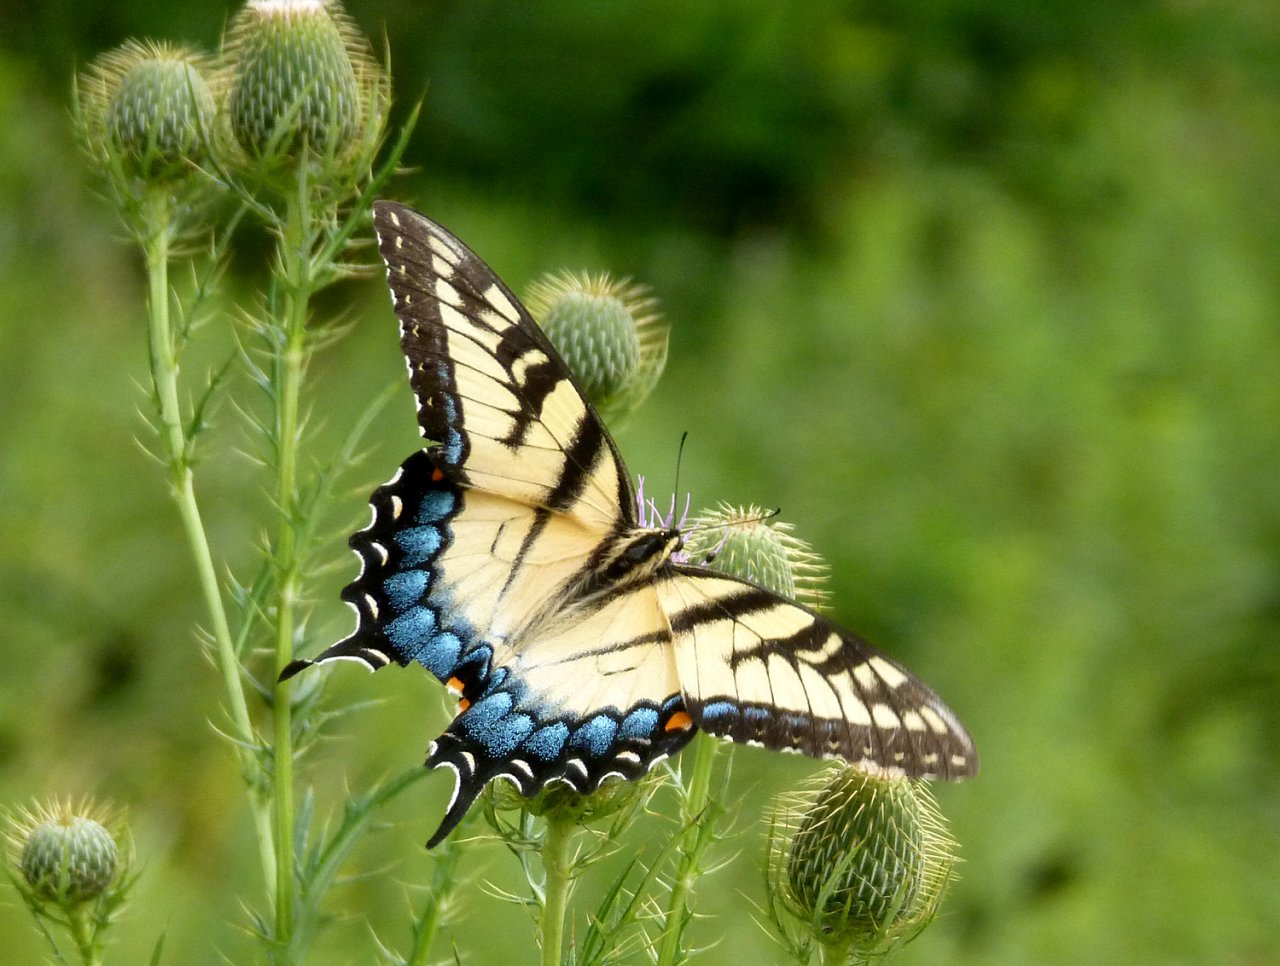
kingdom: Animalia
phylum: Arthropoda
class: Insecta
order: Lepidoptera
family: Papilionidae
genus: Pterourus
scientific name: Pterourus glaucus
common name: Eastern Tiger Swallowtail
